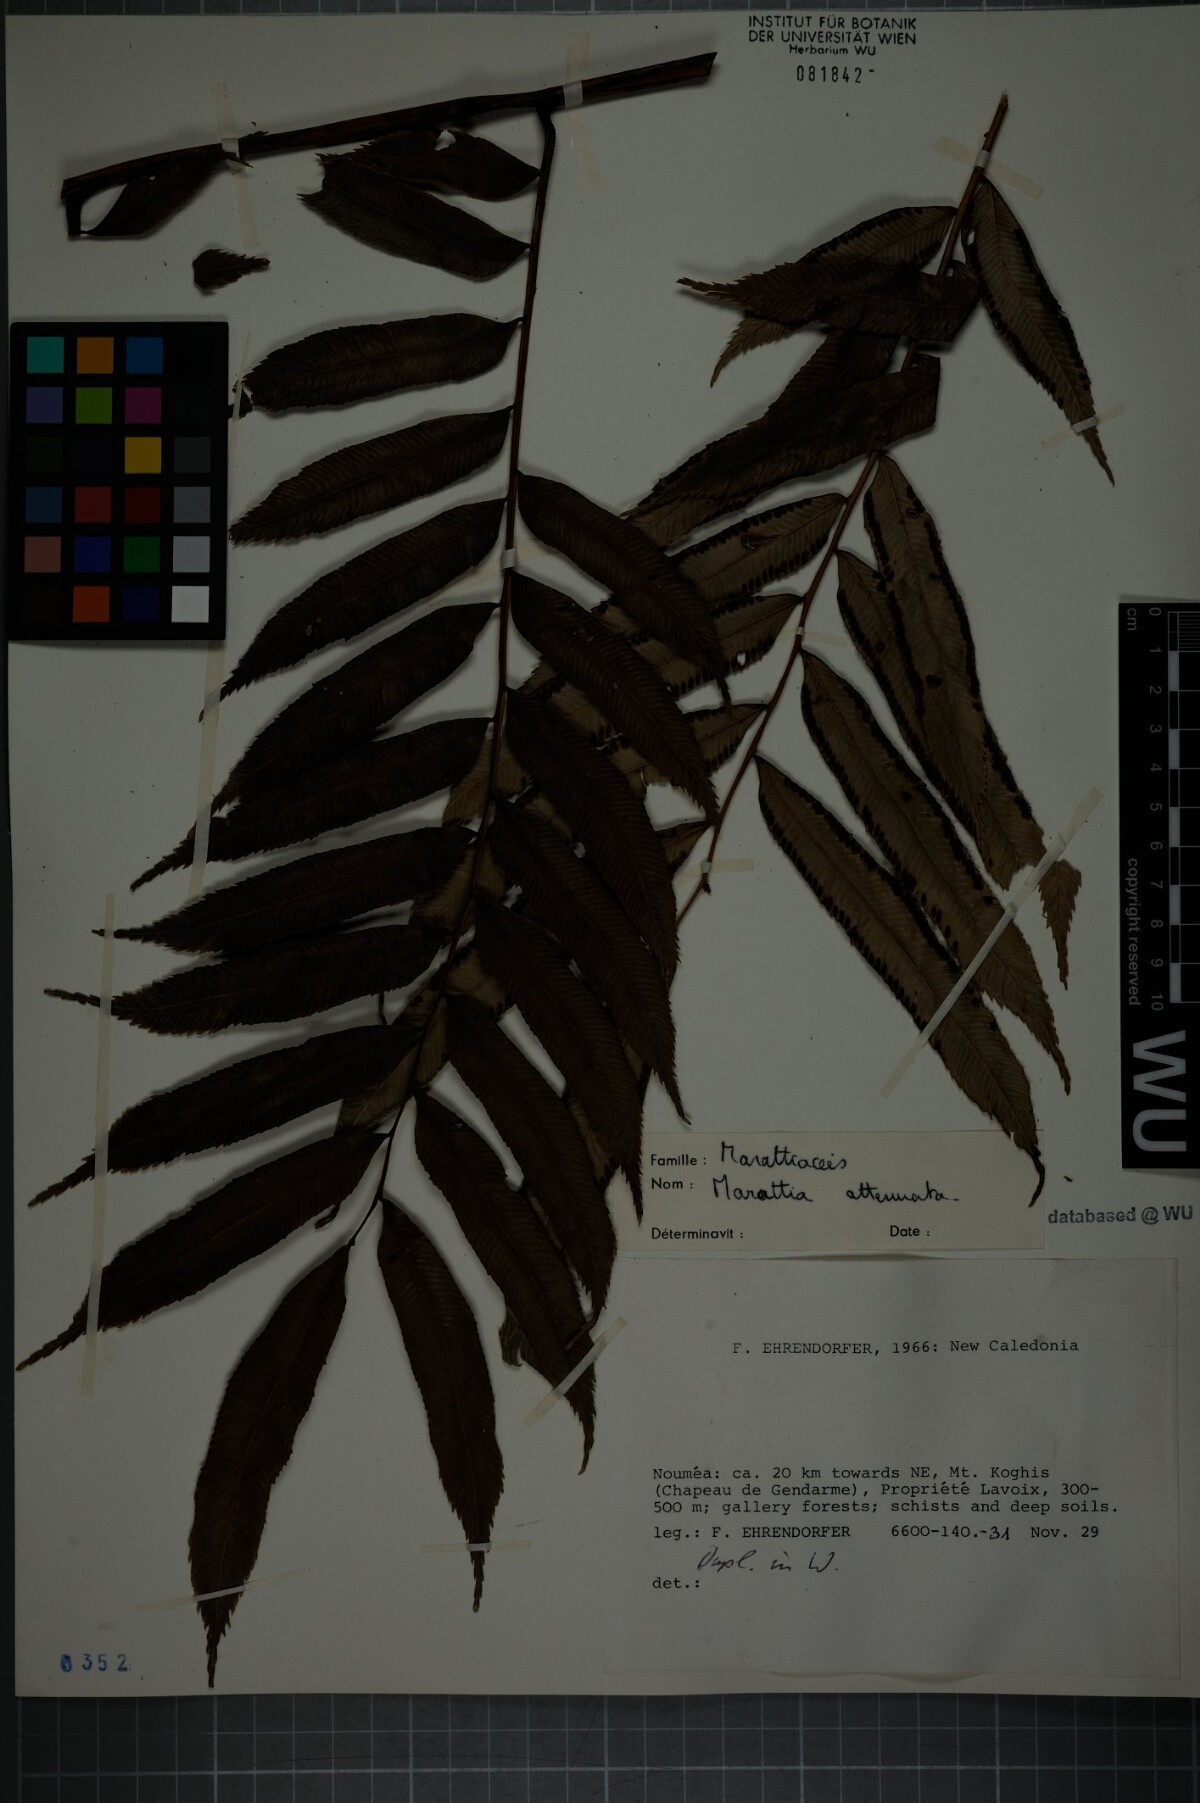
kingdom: Plantae
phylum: Tracheophyta
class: Polypodiopsida
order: Marattiales
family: Marattiaceae
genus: Ptisana
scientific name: Ptisana attenuata
